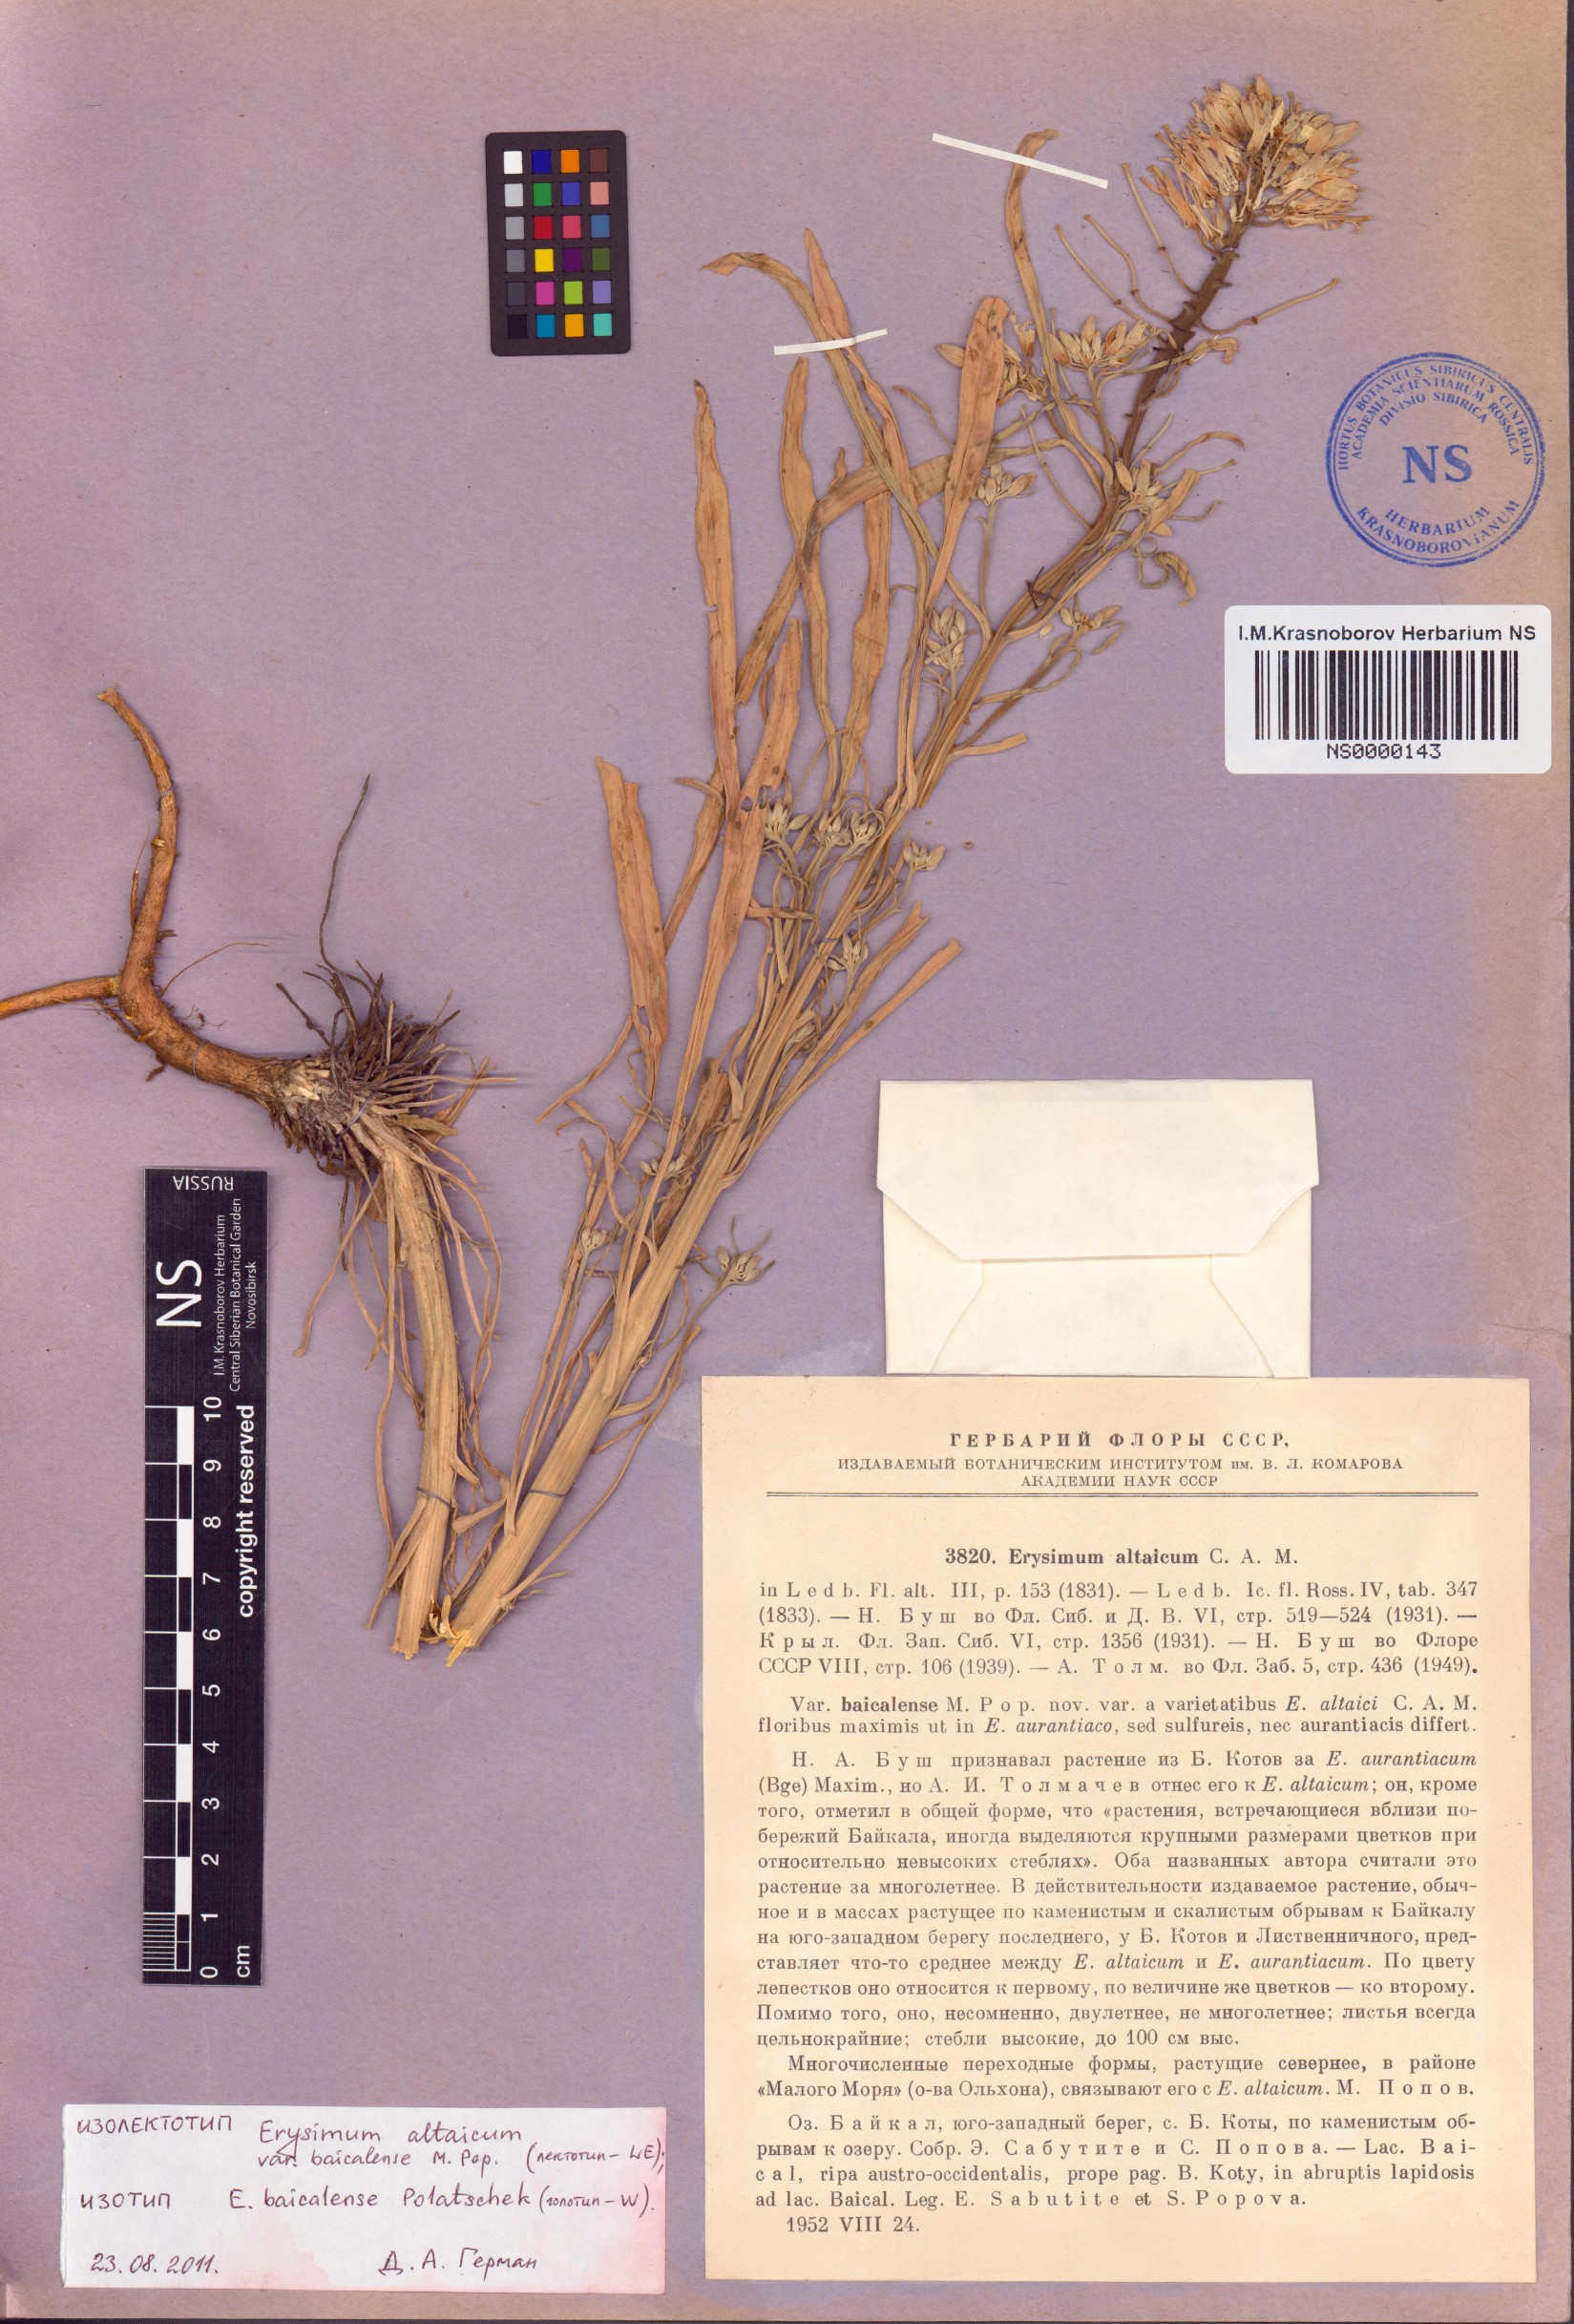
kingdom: Plantae
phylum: Tracheophyta
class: Magnoliopsida
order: Brassicales
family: Brassicaceae
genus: Erysimum
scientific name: Erysimum flavum
